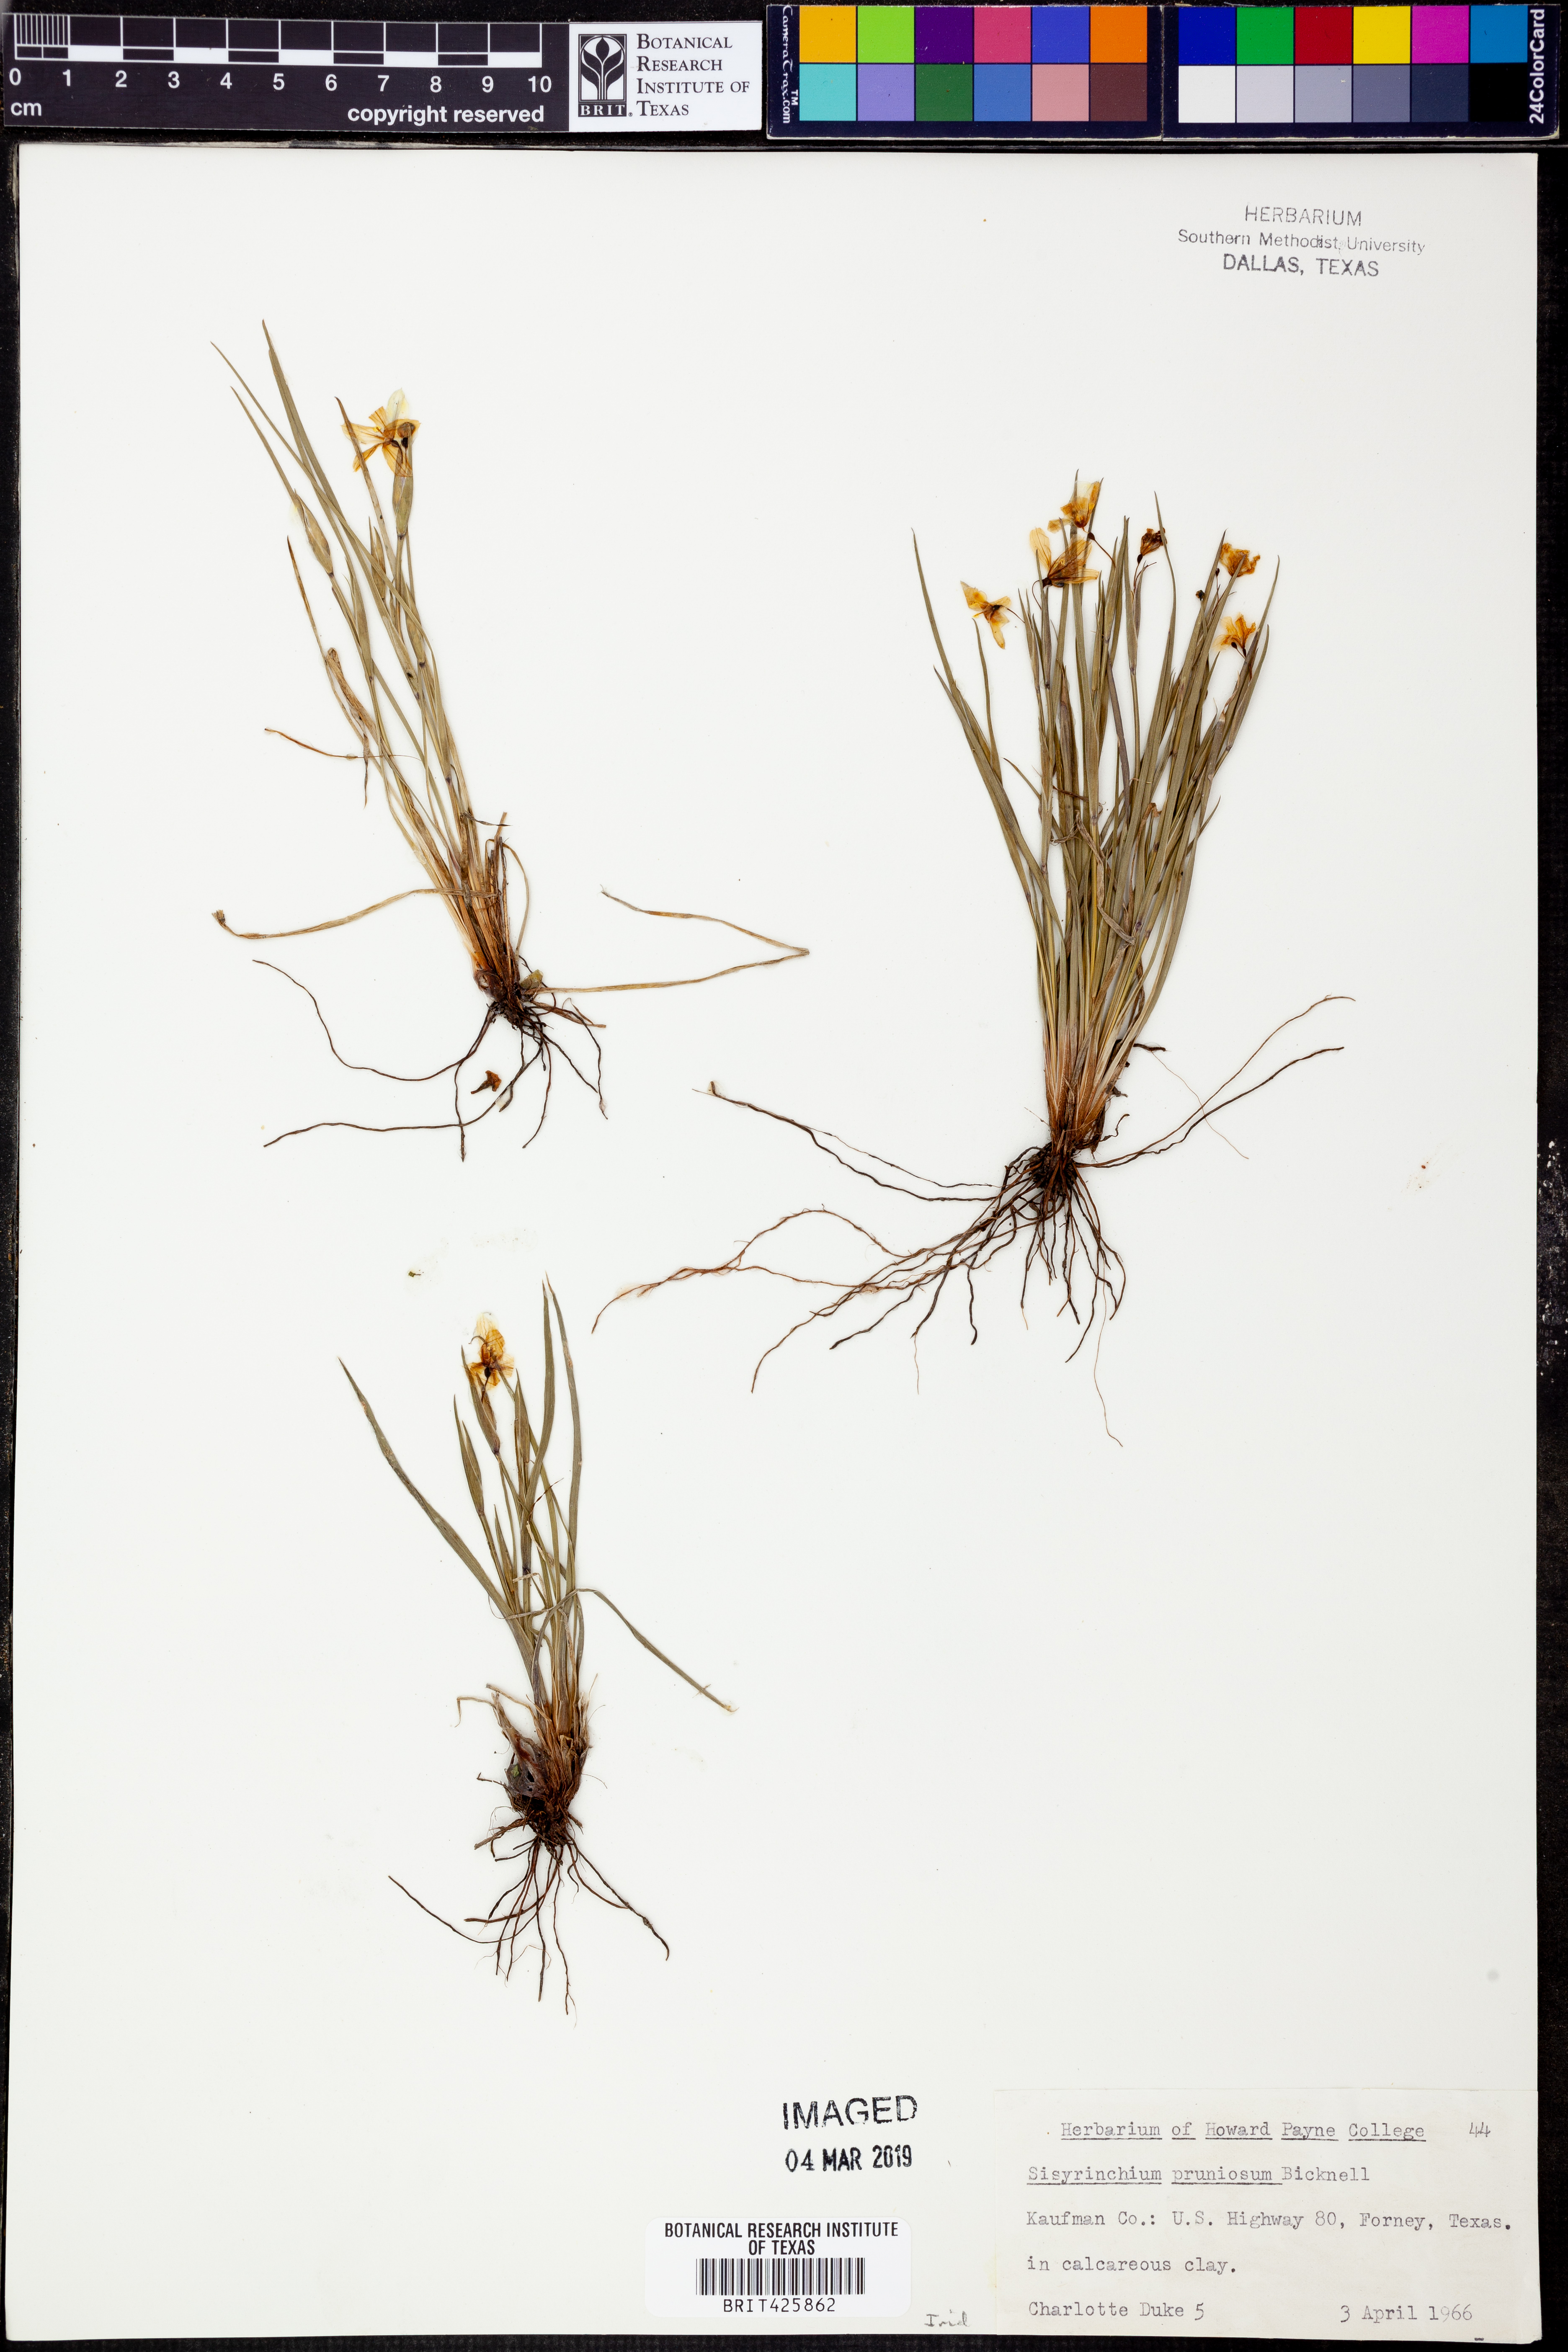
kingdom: Plantae
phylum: Tracheophyta
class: Liliopsida
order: Asparagales
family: Iridaceae
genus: Sisyrinchium
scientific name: Sisyrinchium pruinosum
